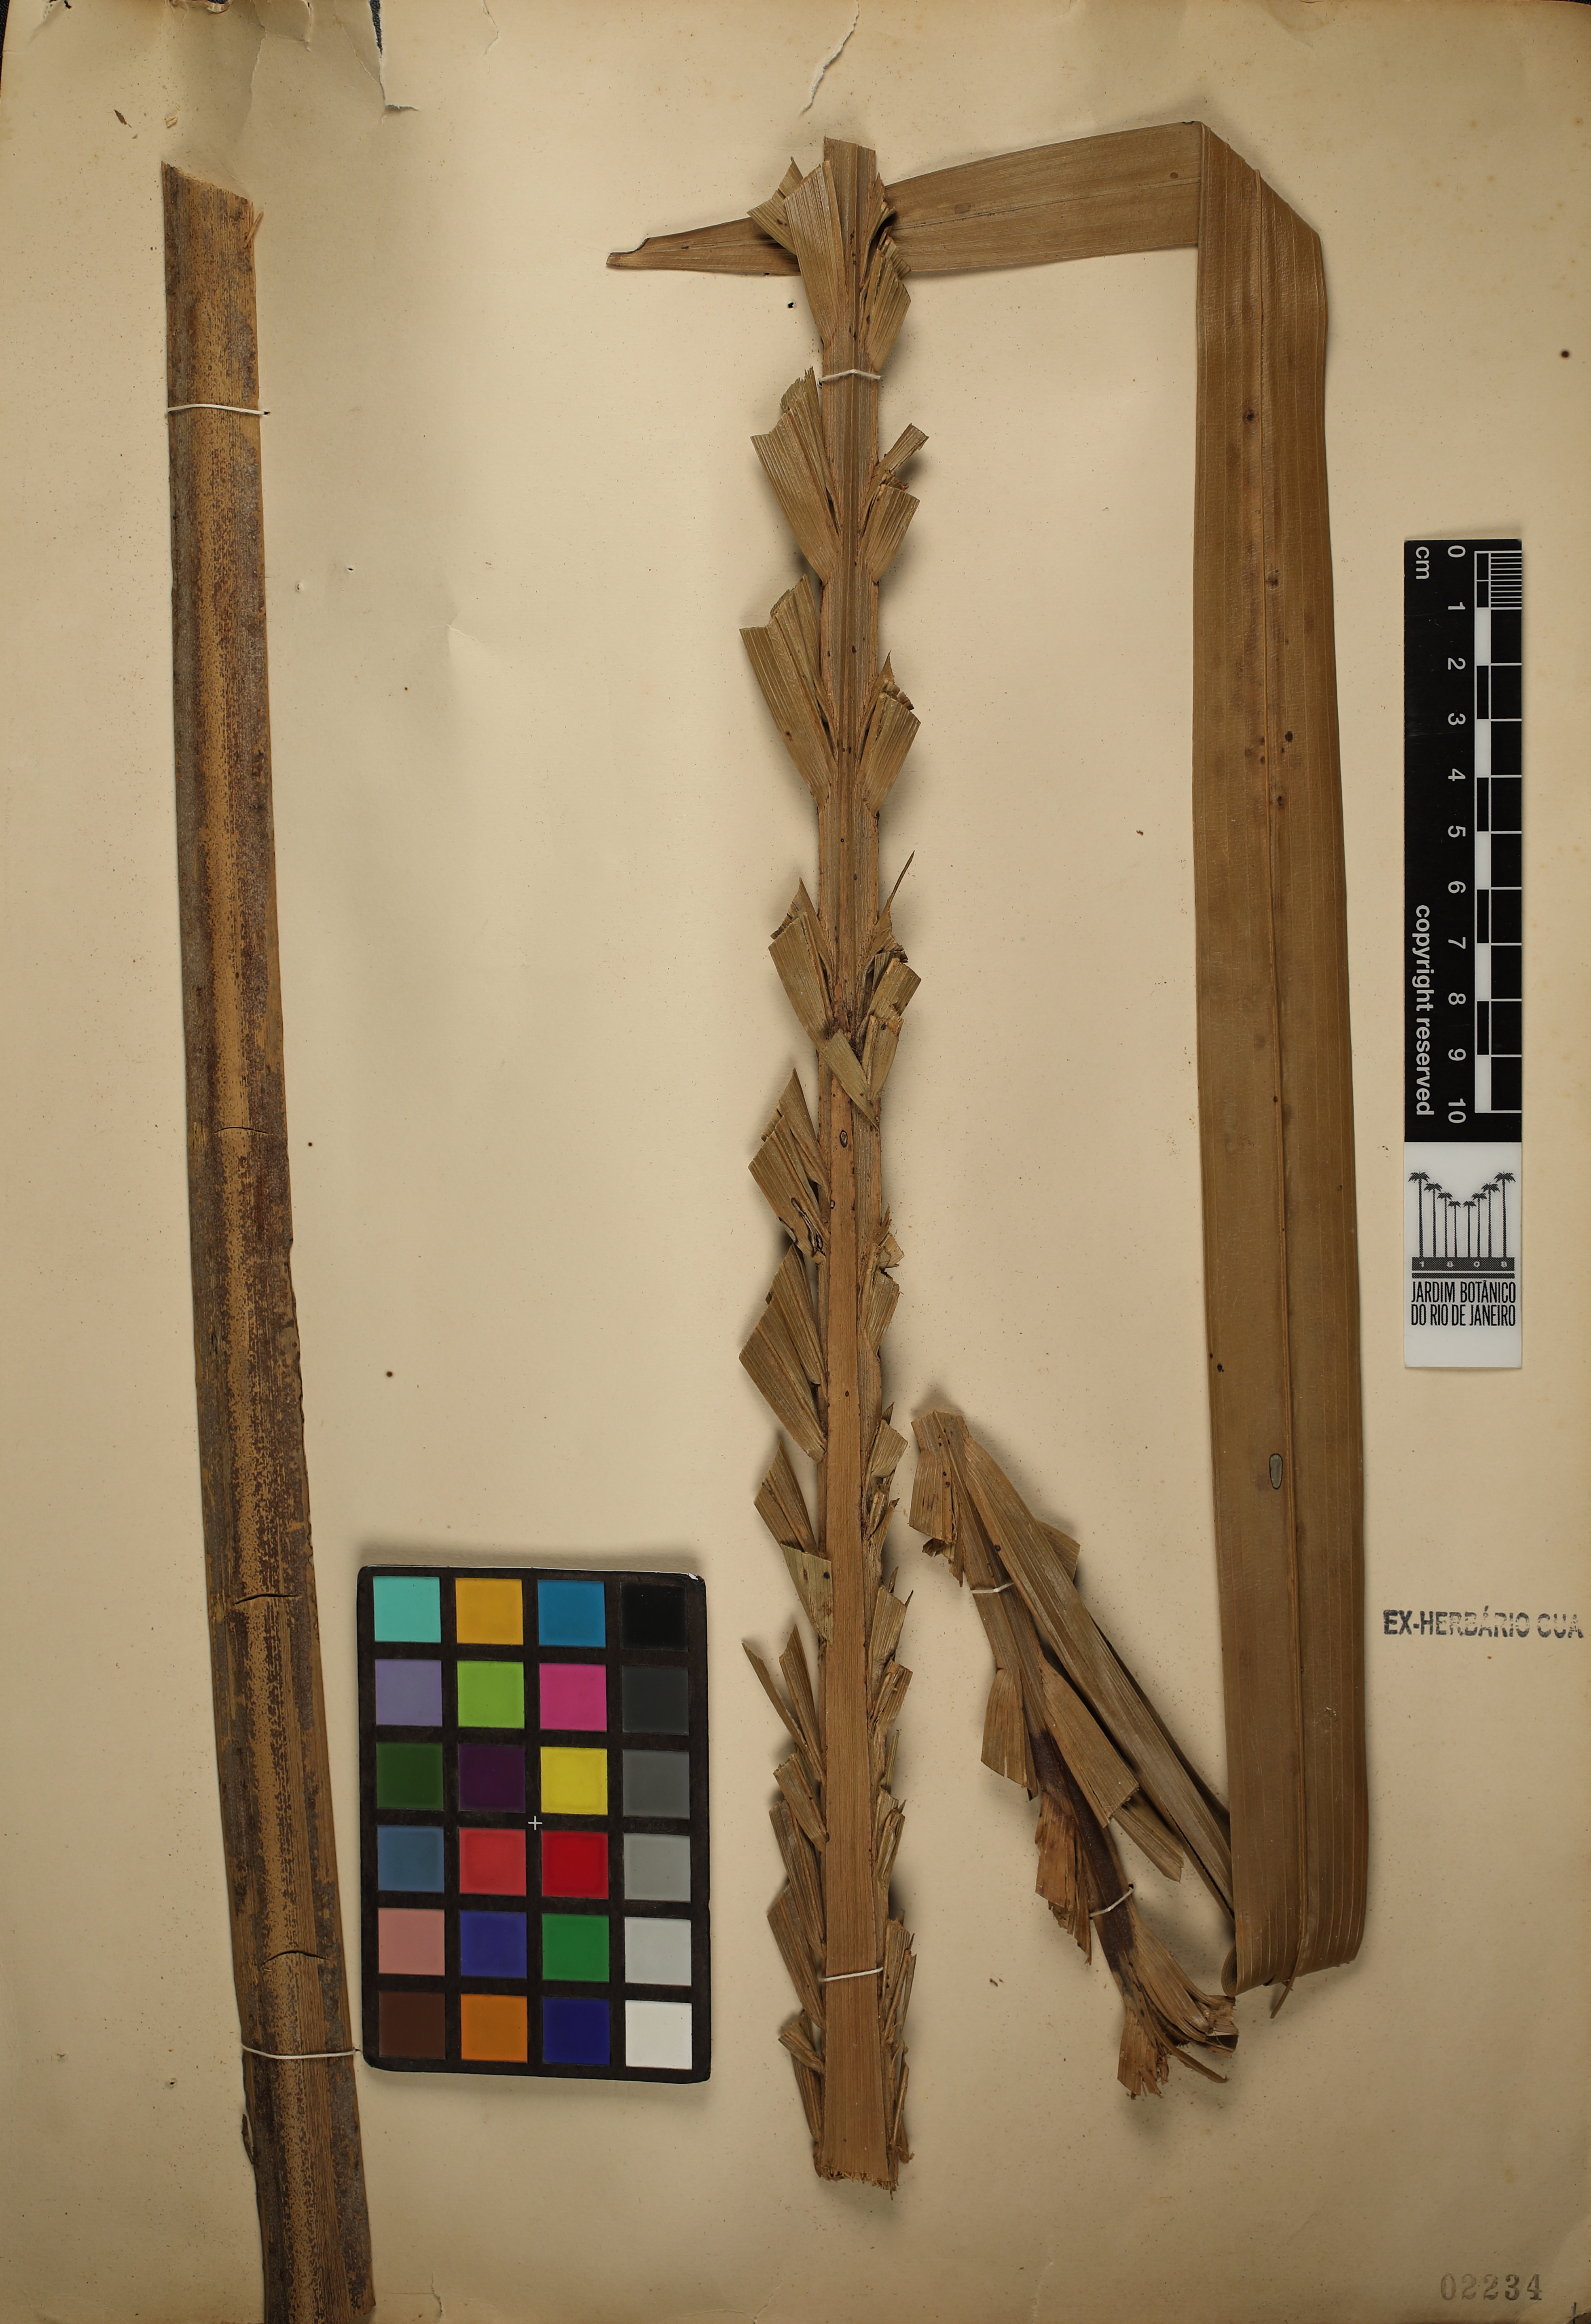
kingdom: Plantae
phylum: Tracheophyta
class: Liliopsida
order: Arecales
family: Arecaceae
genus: Syagrus
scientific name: Syagrus comosa
